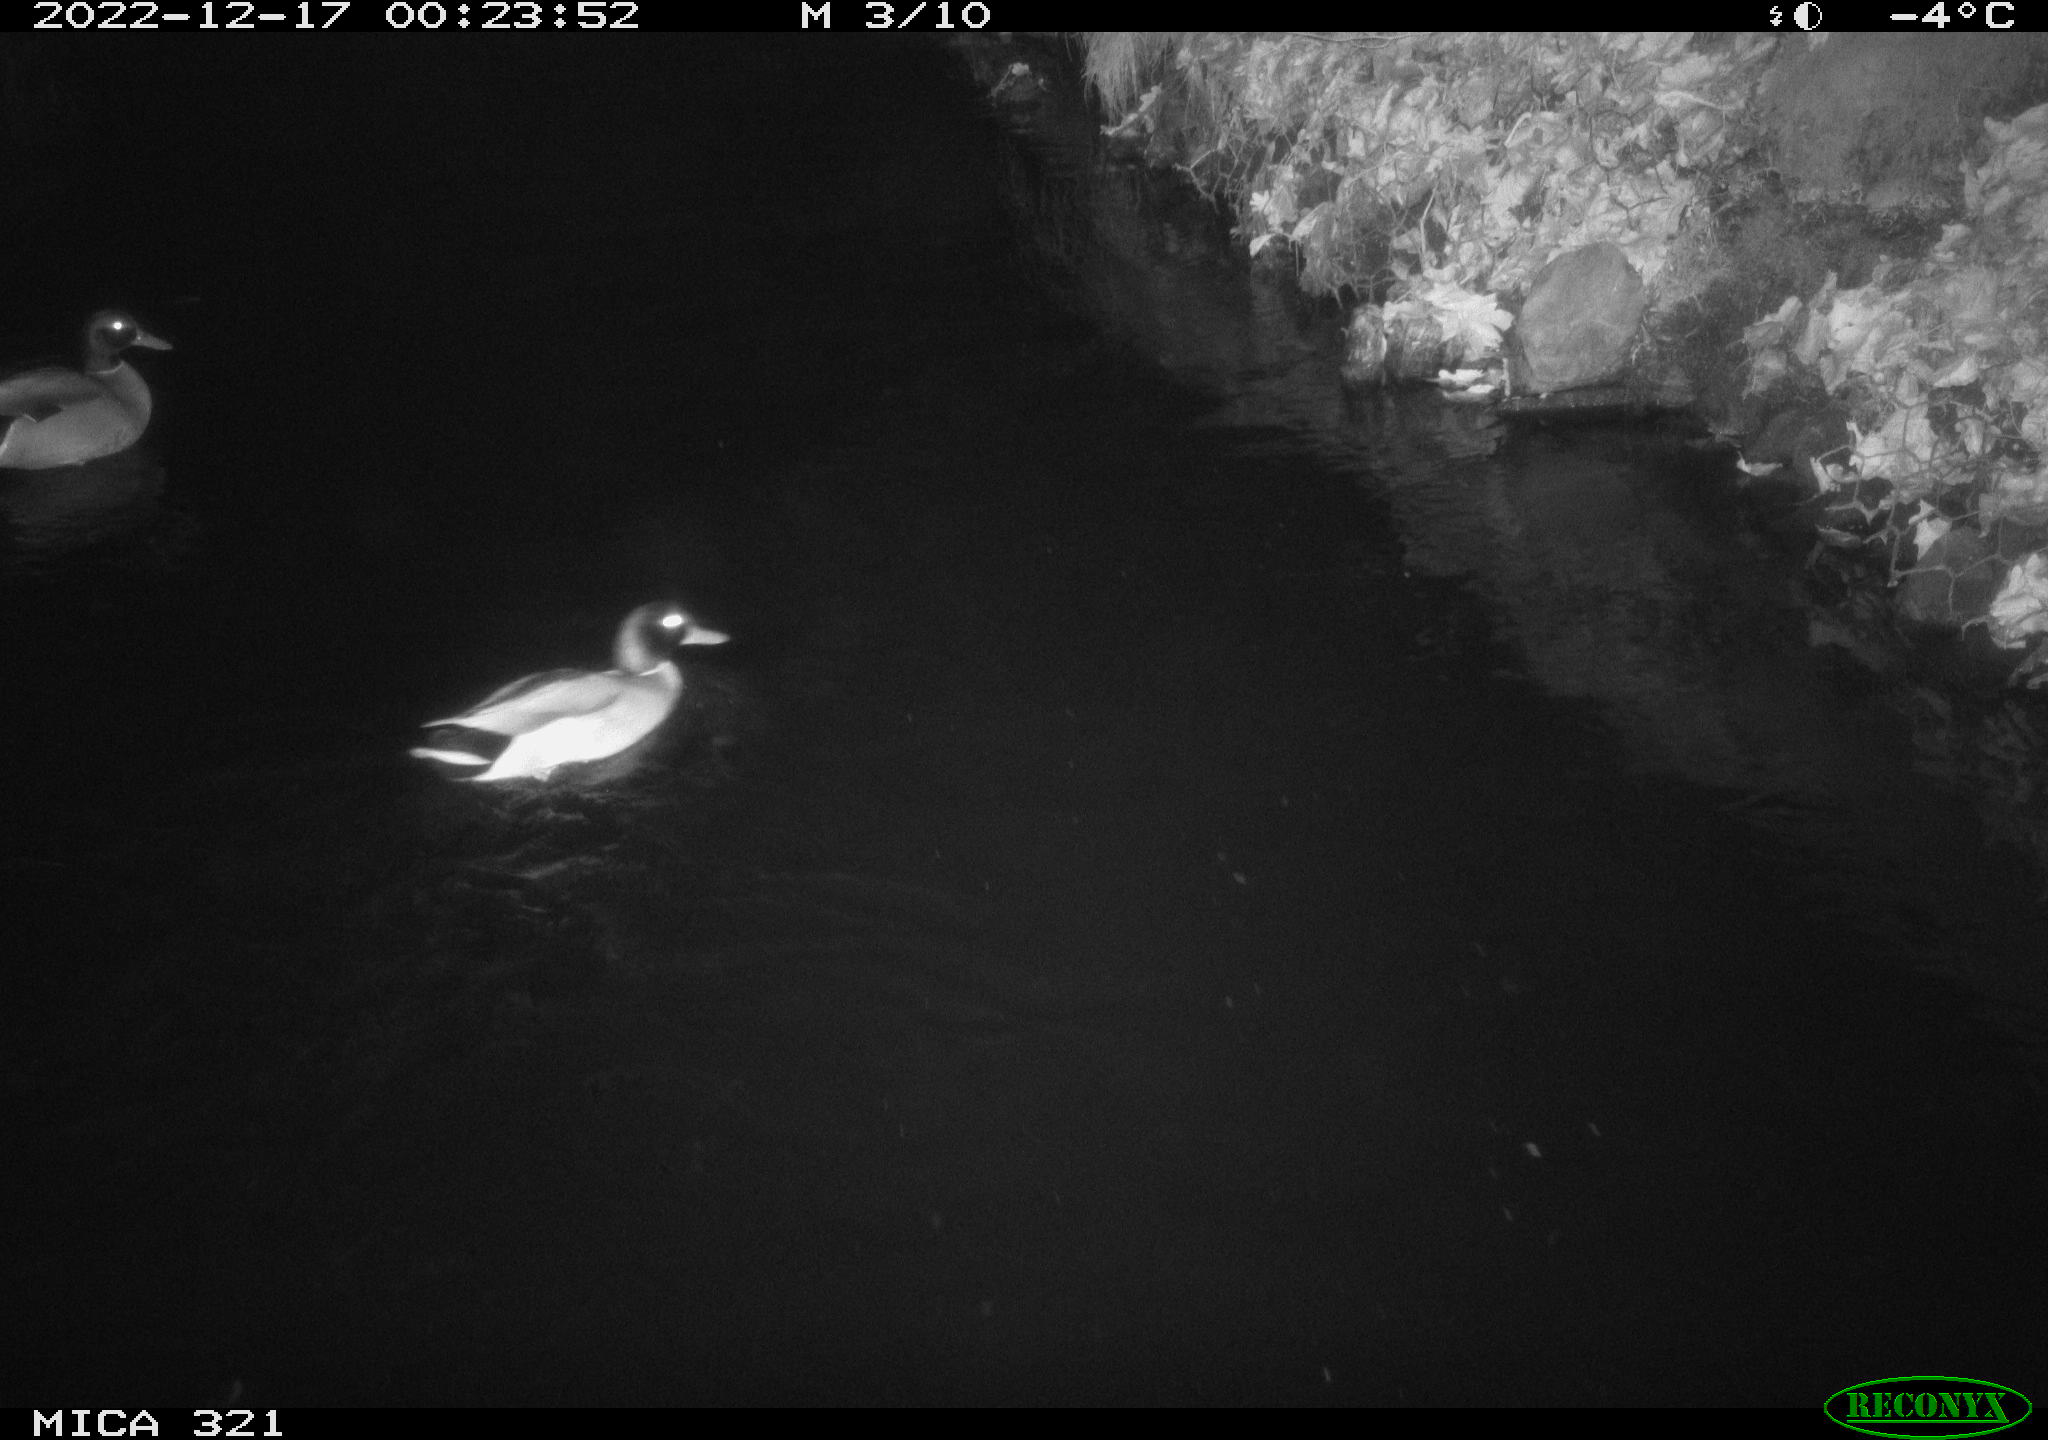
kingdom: Animalia
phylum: Chordata
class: Aves
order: Anseriformes
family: Anatidae
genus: Anas
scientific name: Anas
